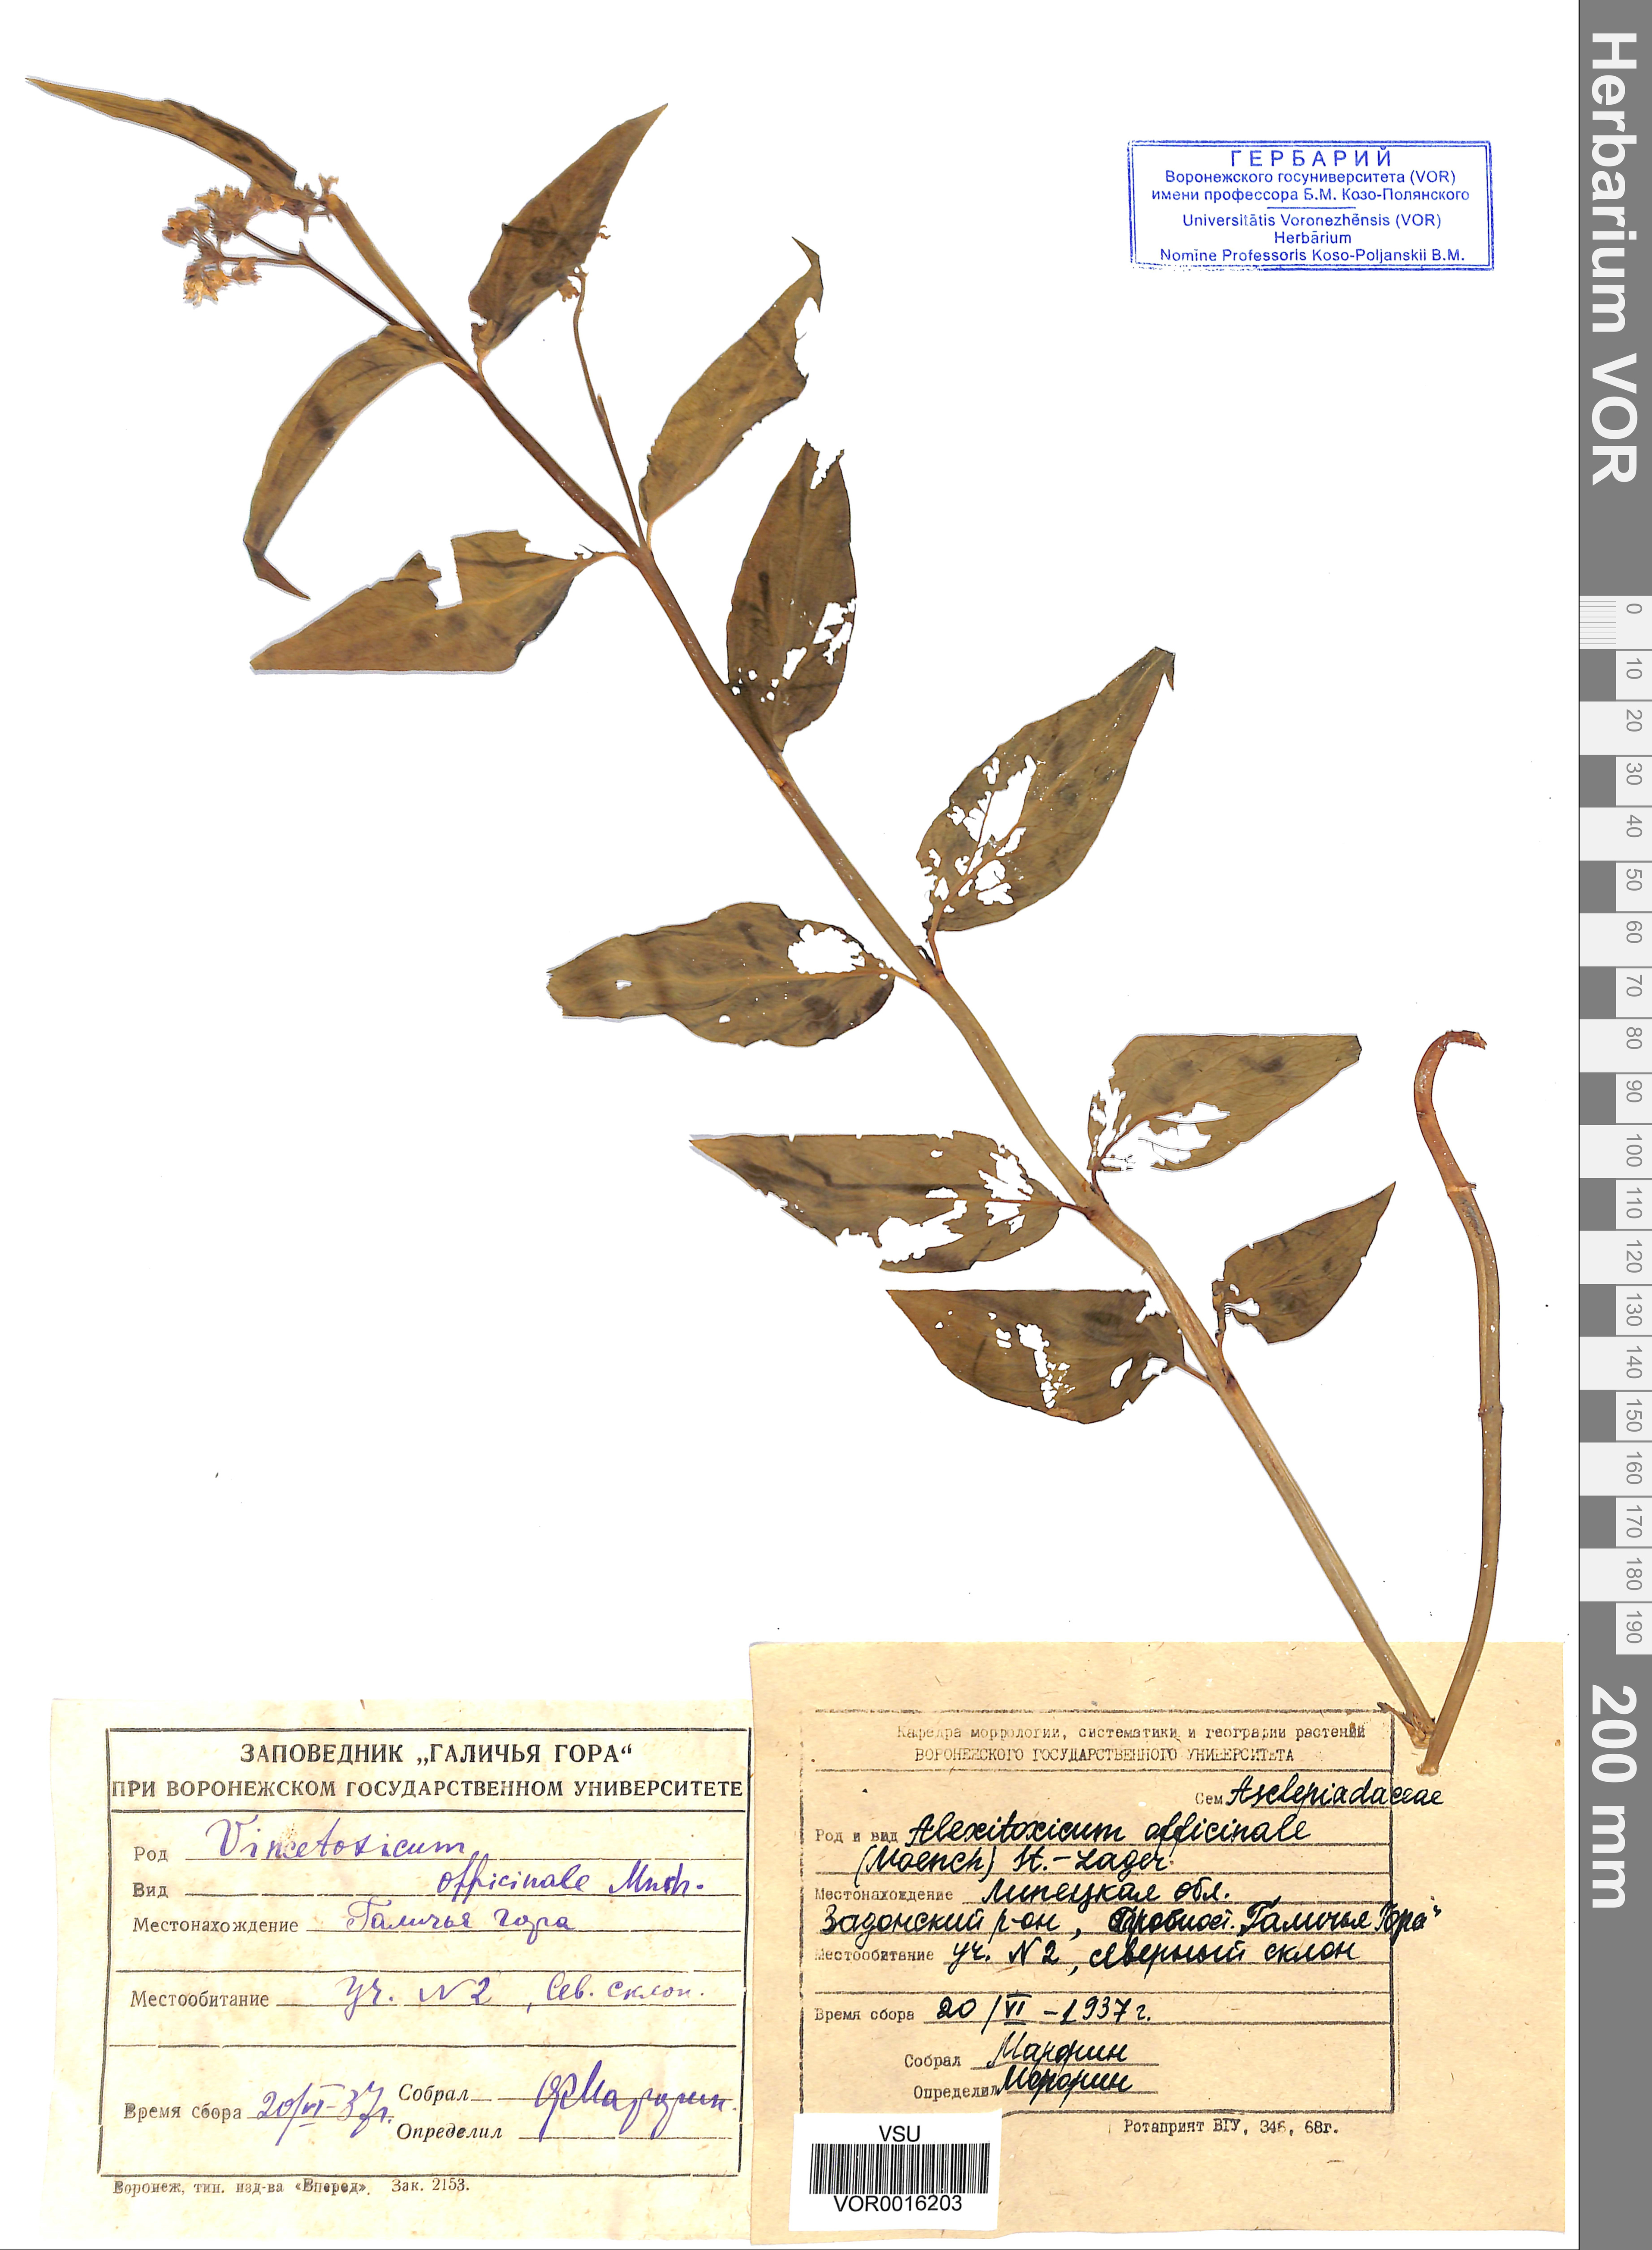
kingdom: Plantae
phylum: Tracheophyta
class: Magnoliopsida
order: Gentianales
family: Apocynaceae
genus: Vincetoxicum
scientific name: Vincetoxicum hirundinaria
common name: White swallowwort
